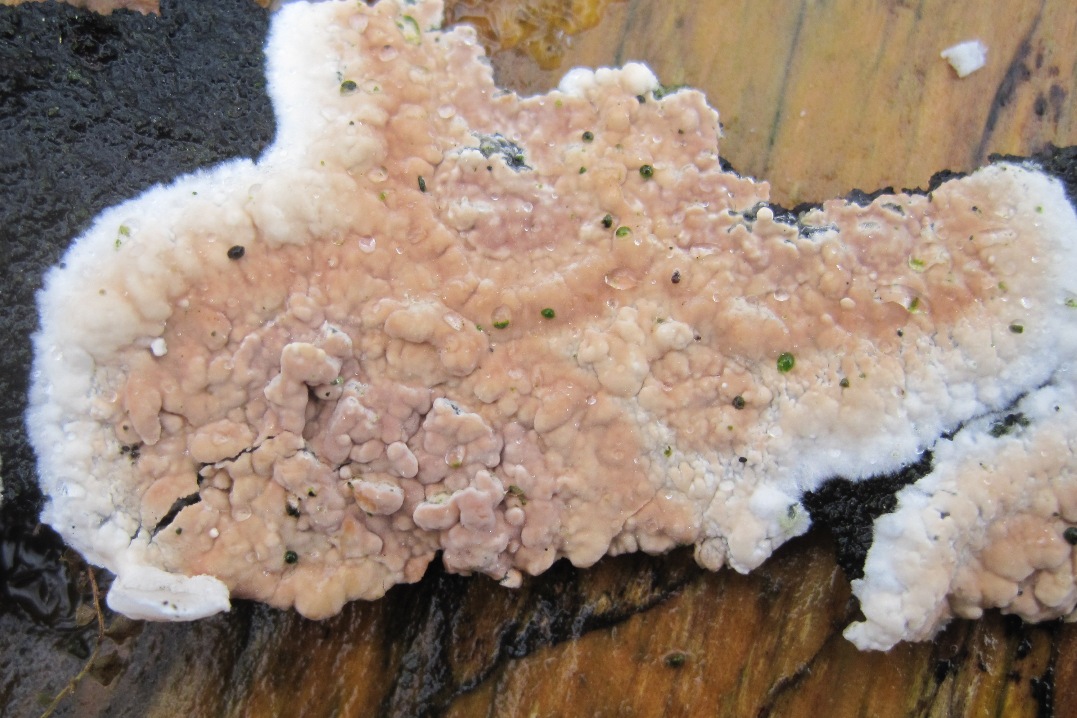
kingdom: Fungi
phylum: Basidiomycota
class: Agaricomycetes
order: Agaricales
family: Physalacriaceae
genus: Cylindrobasidium
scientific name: Cylindrobasidium evolvens
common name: sprækkehinde
